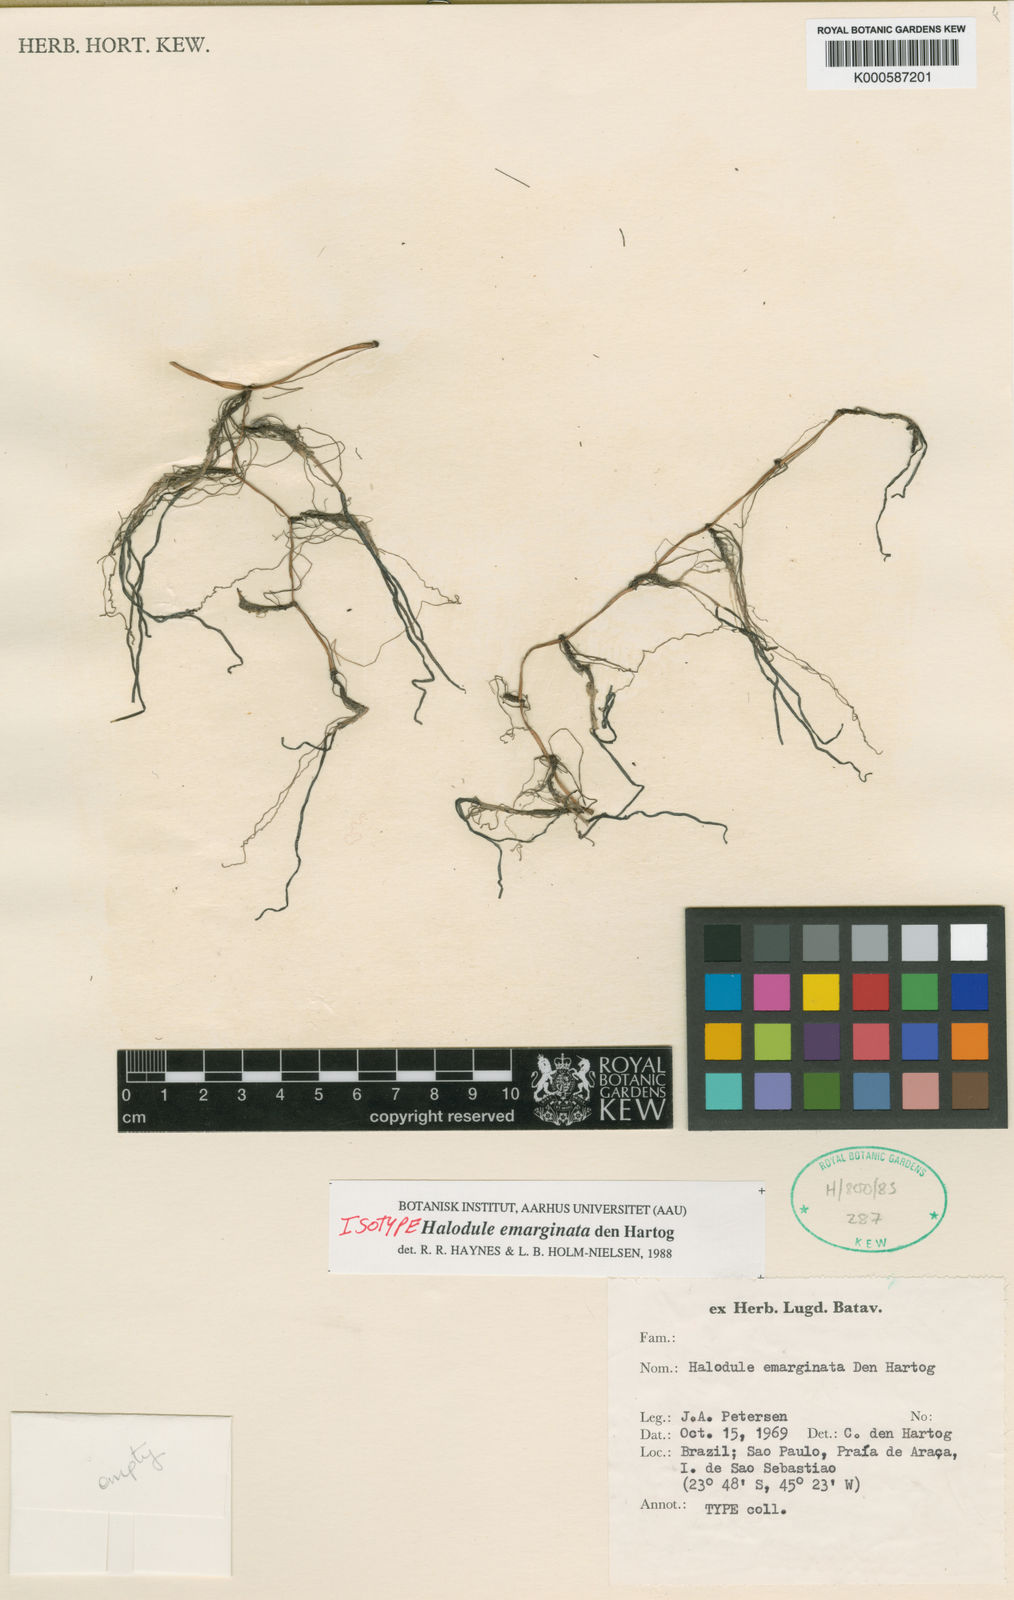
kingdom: Plantae
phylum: Tracheophyta
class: Liliopsida
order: Alismatales
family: Cymodoceaceae
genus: Halodule
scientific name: Halodule emarginata
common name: Seagrass
